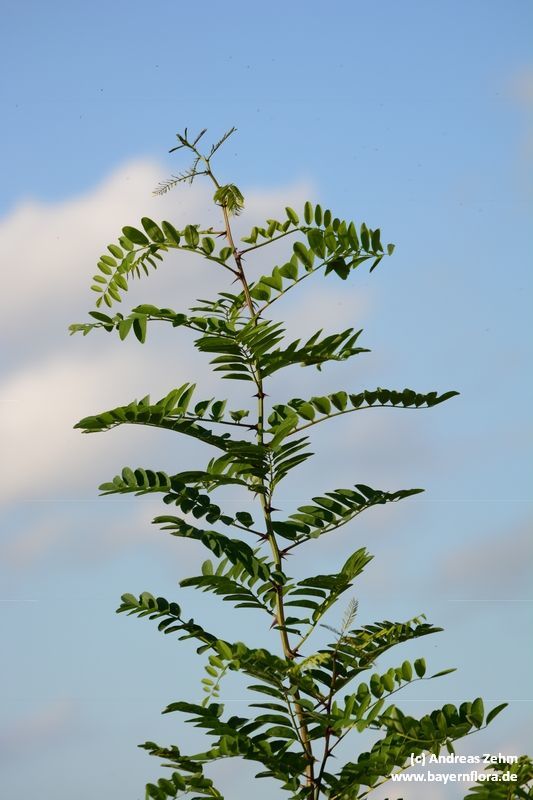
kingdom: Plantae
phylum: Tracheophyta
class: Magnoliopsida
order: Fabales
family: Fabaceae
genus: Robinia
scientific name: Robinia pseudoacacia
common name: Black locust
